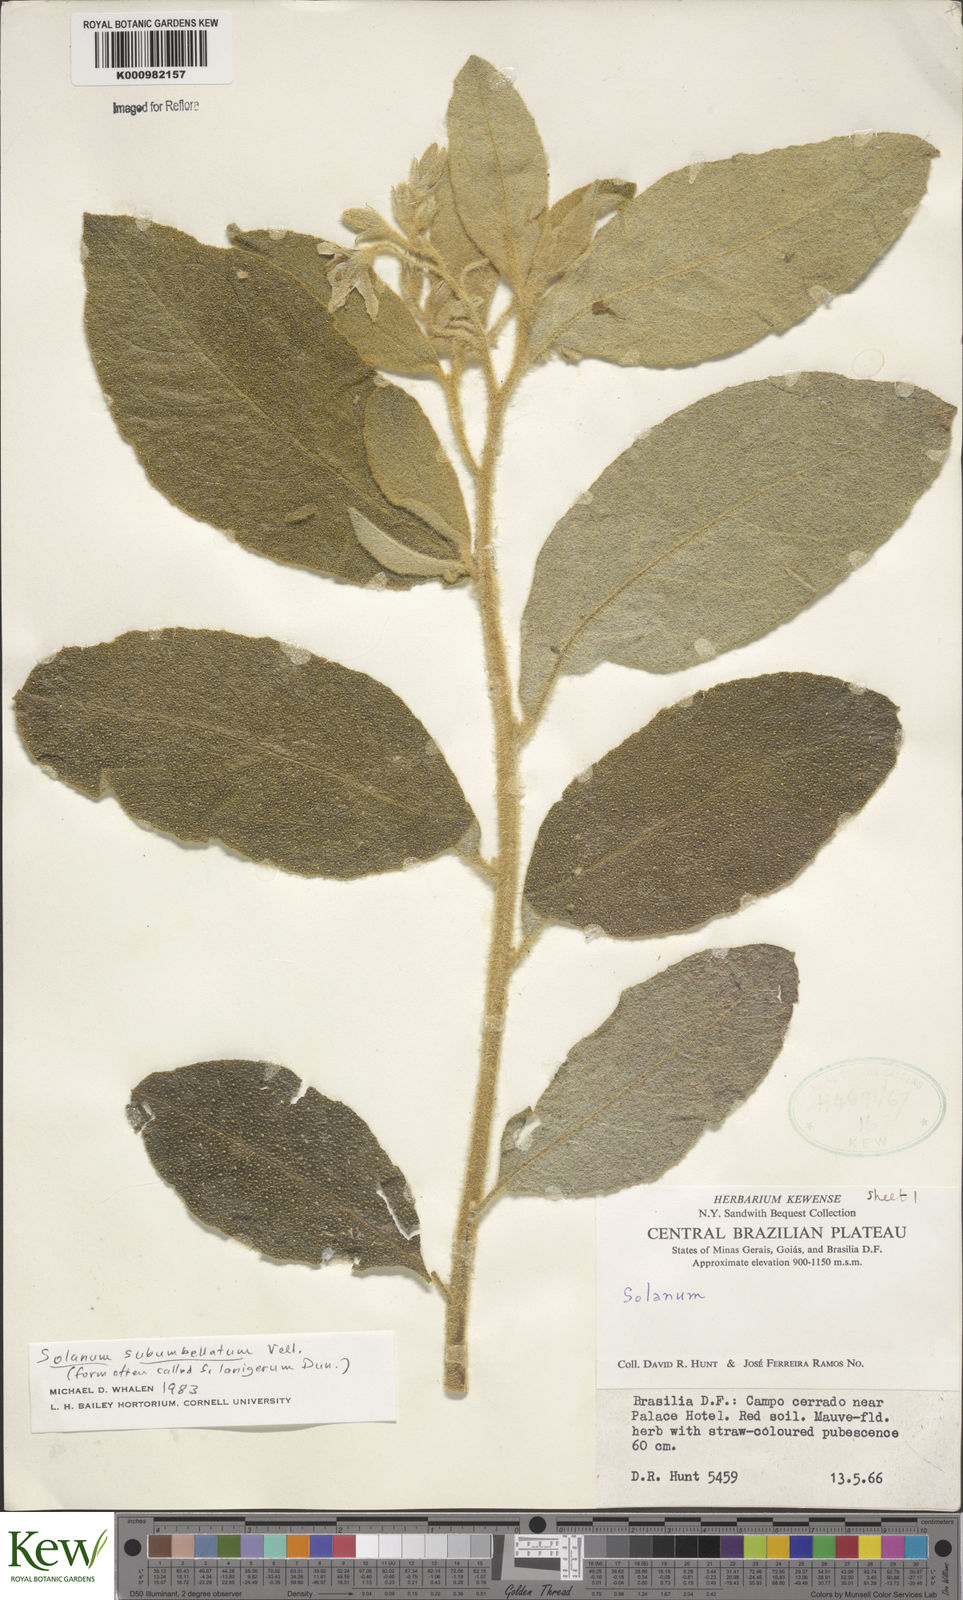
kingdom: Plantae
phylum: Tracheophyta
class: Magnoliopsida
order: Solanales
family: Solanaceae
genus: Solanum
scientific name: Solanum subumbellatum
